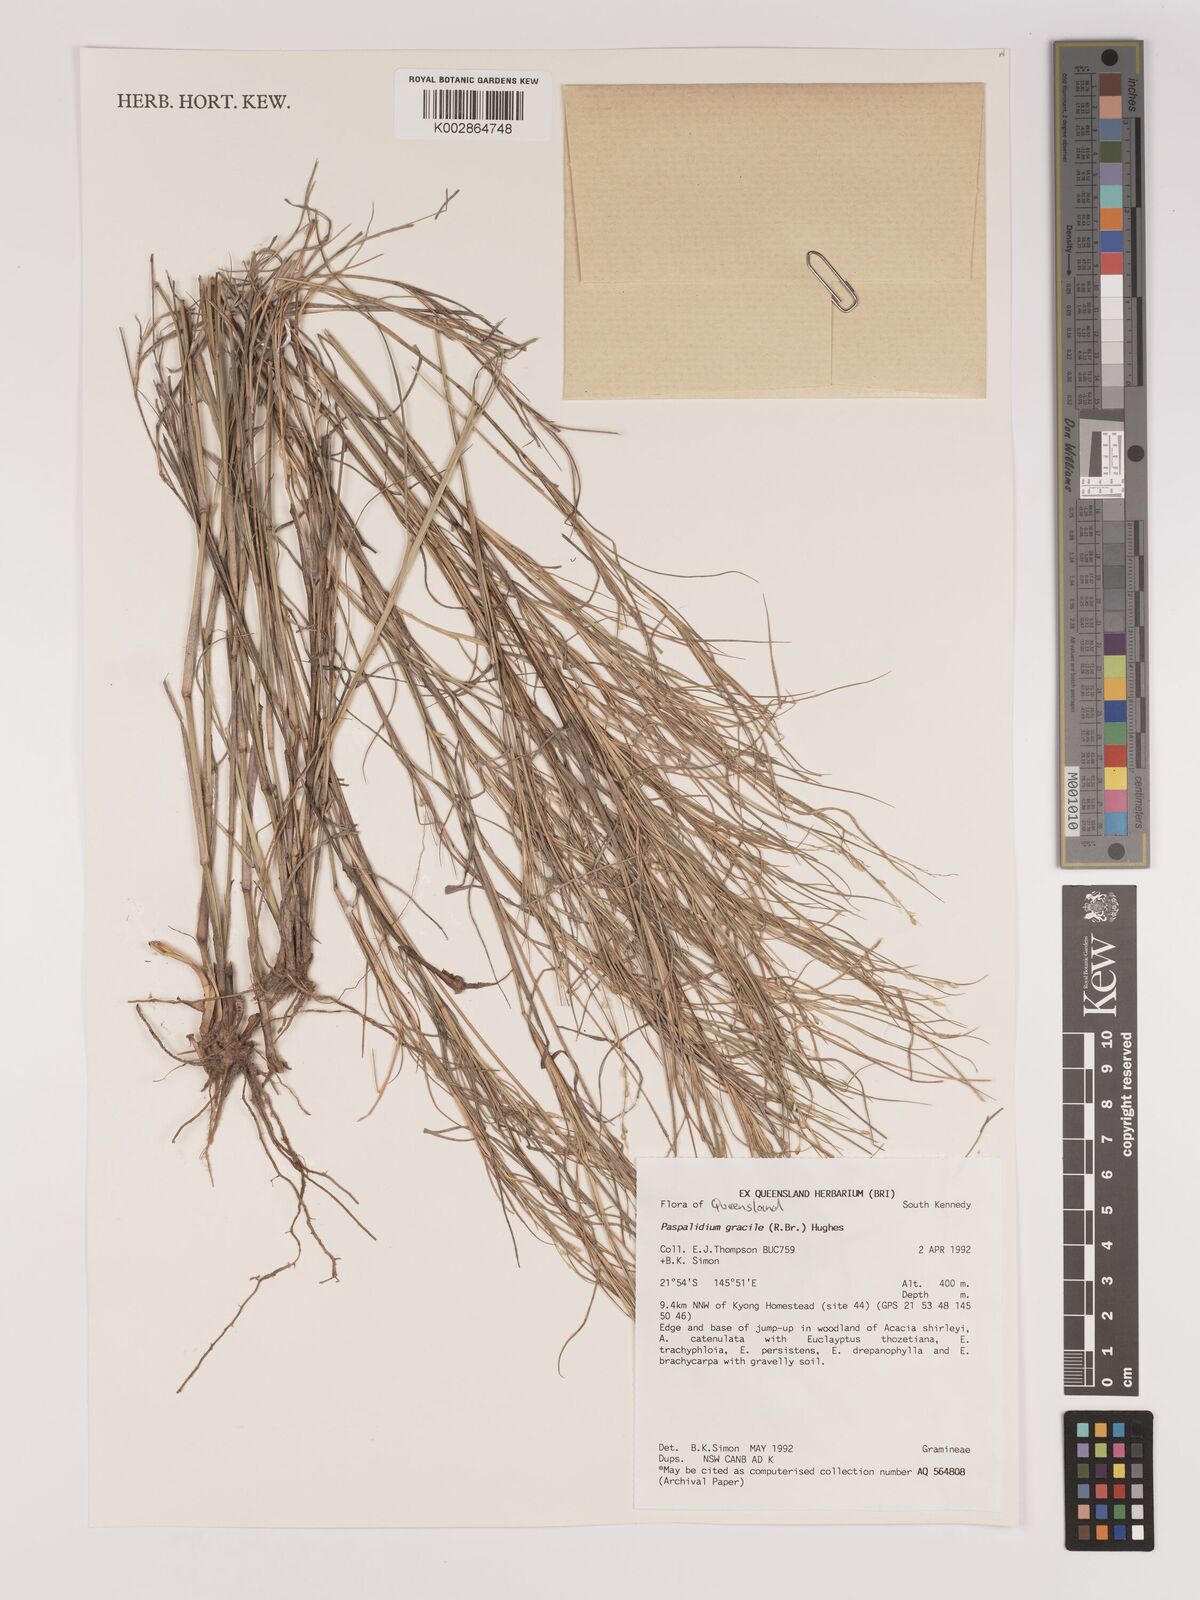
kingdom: Plantae
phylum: Tracheophyta
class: Liliopsida
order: Poales
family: Poaceae
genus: Setaria
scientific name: Setaria brownii
